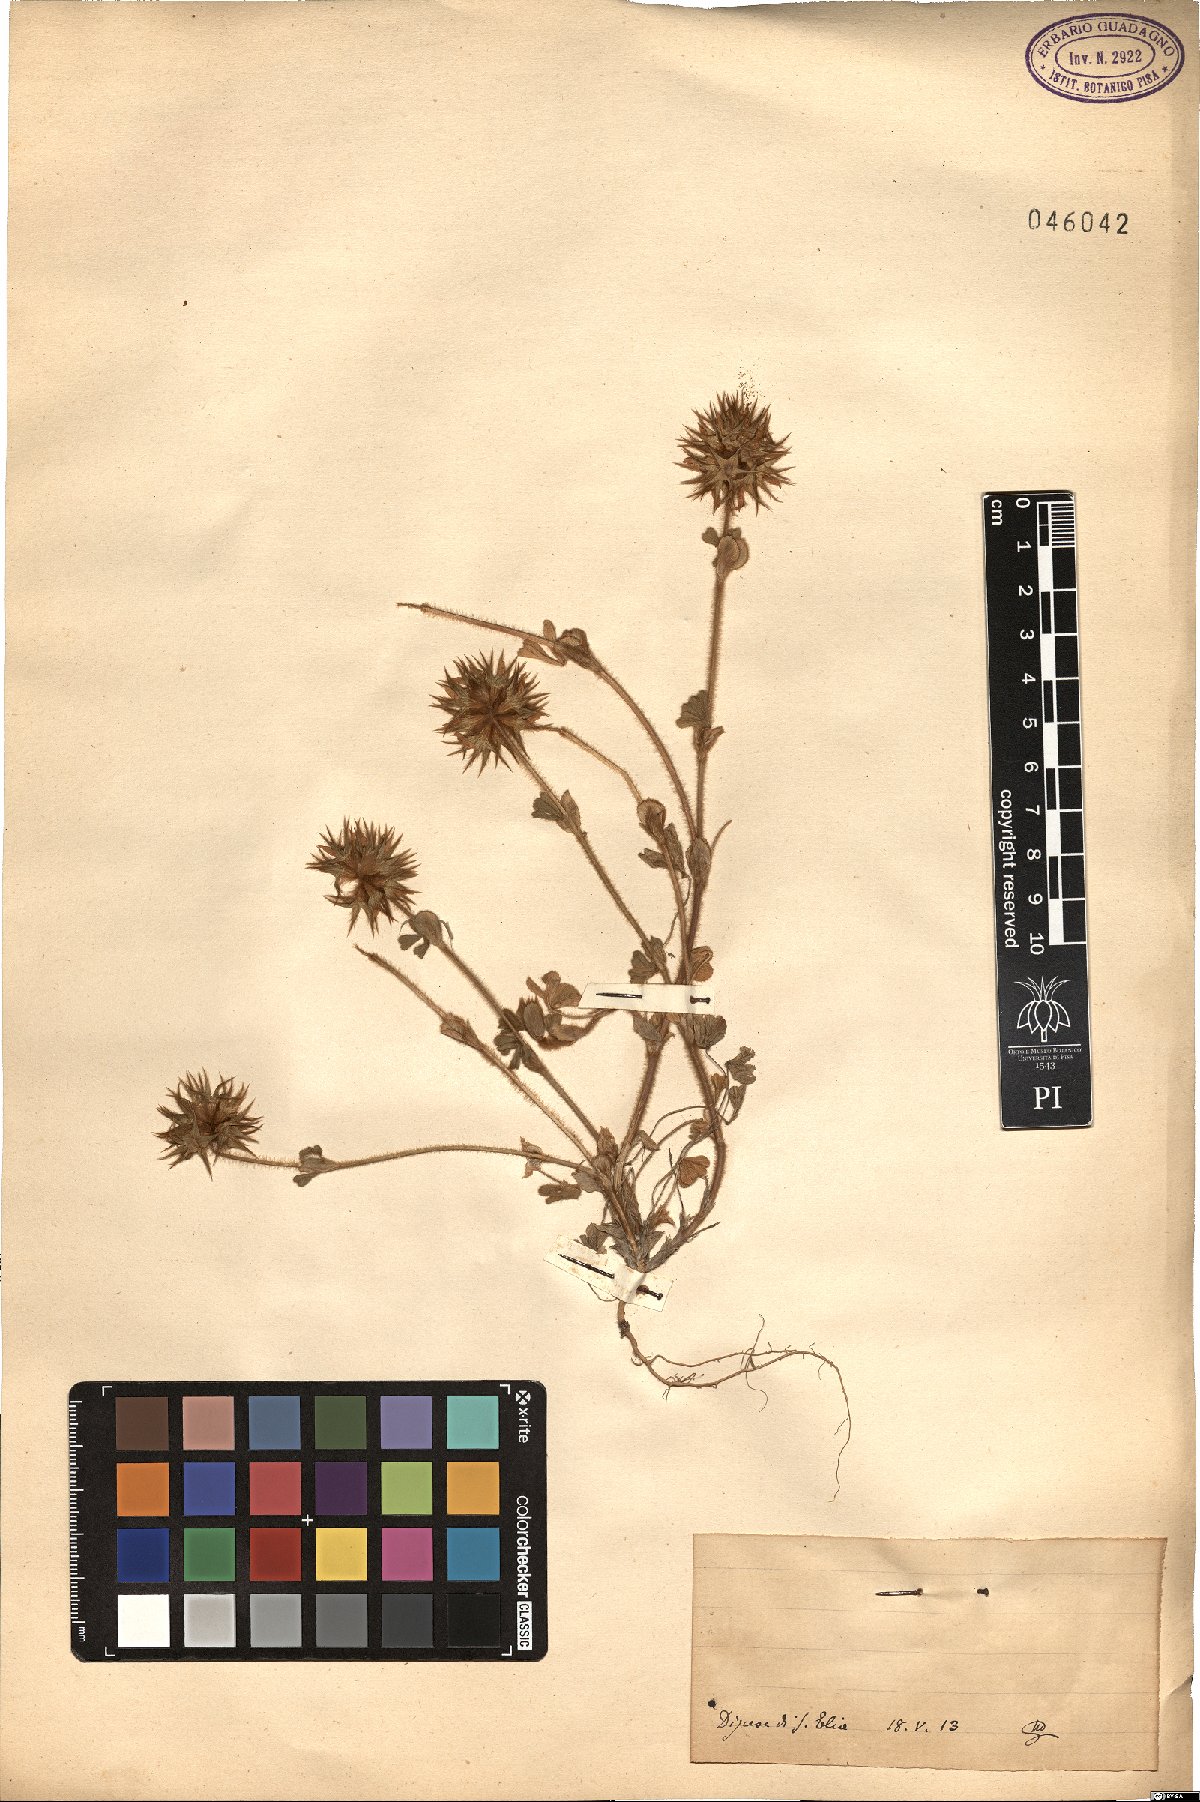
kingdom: Plantae
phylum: Tracheophyta
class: Magnoliopsida
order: Fabales
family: Fabaceae
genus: Trifolium
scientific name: Trifolium
